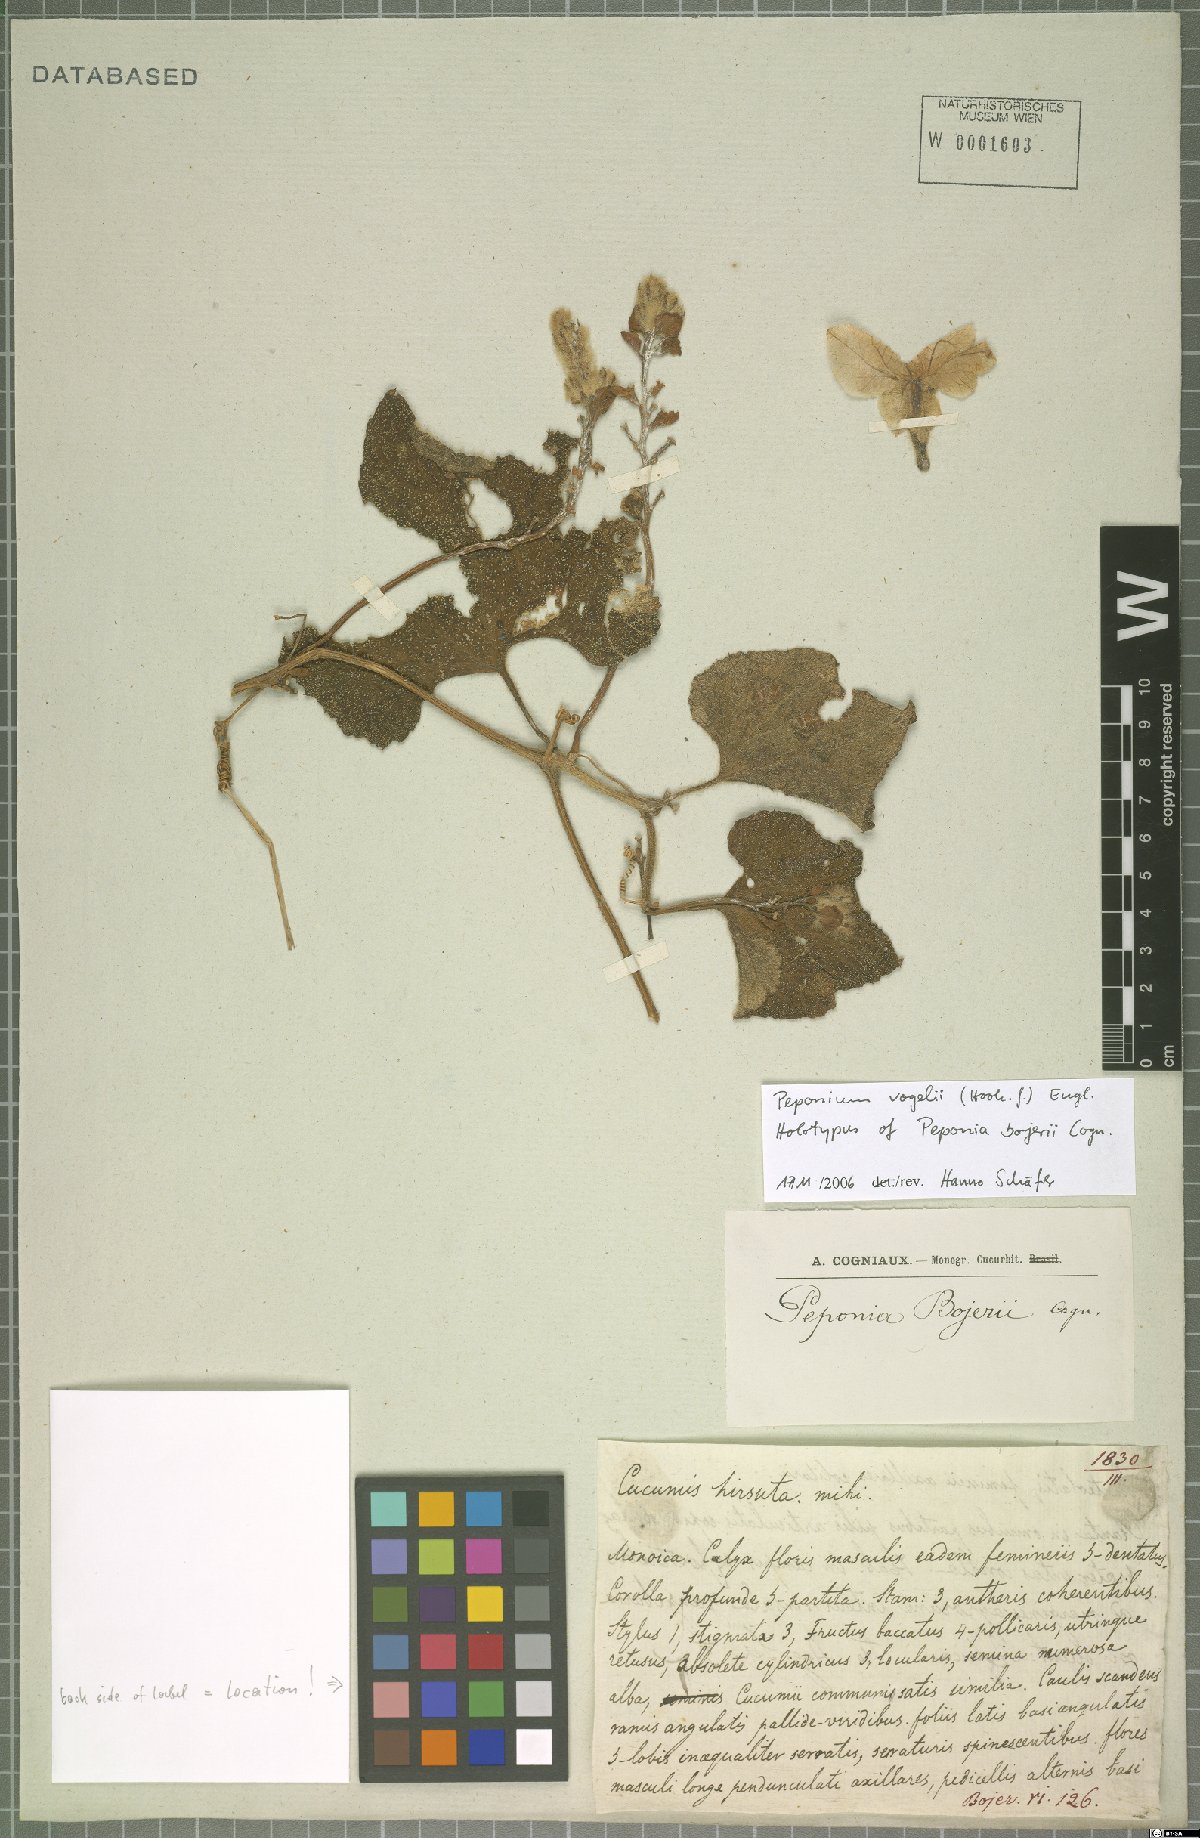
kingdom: Plantae
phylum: Tracheophyta
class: Magnoliopsida
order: Cucurbitales
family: Cucurbitaceae
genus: Peponium
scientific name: Peponium vogelii
